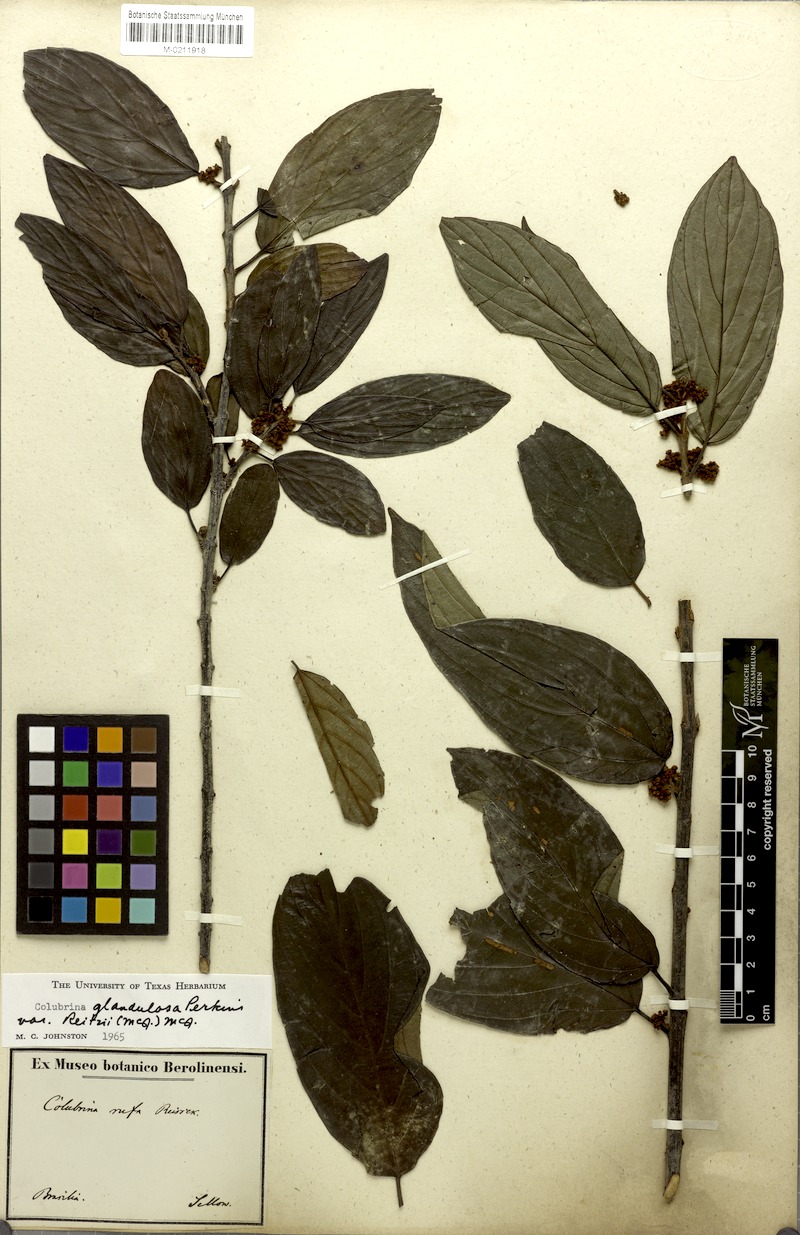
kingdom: Plantae
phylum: Tracheophyta
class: Magnoliopsida
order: Rosales
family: Rhamnaceae
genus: Colubrina
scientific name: Colubrina glandulosa
